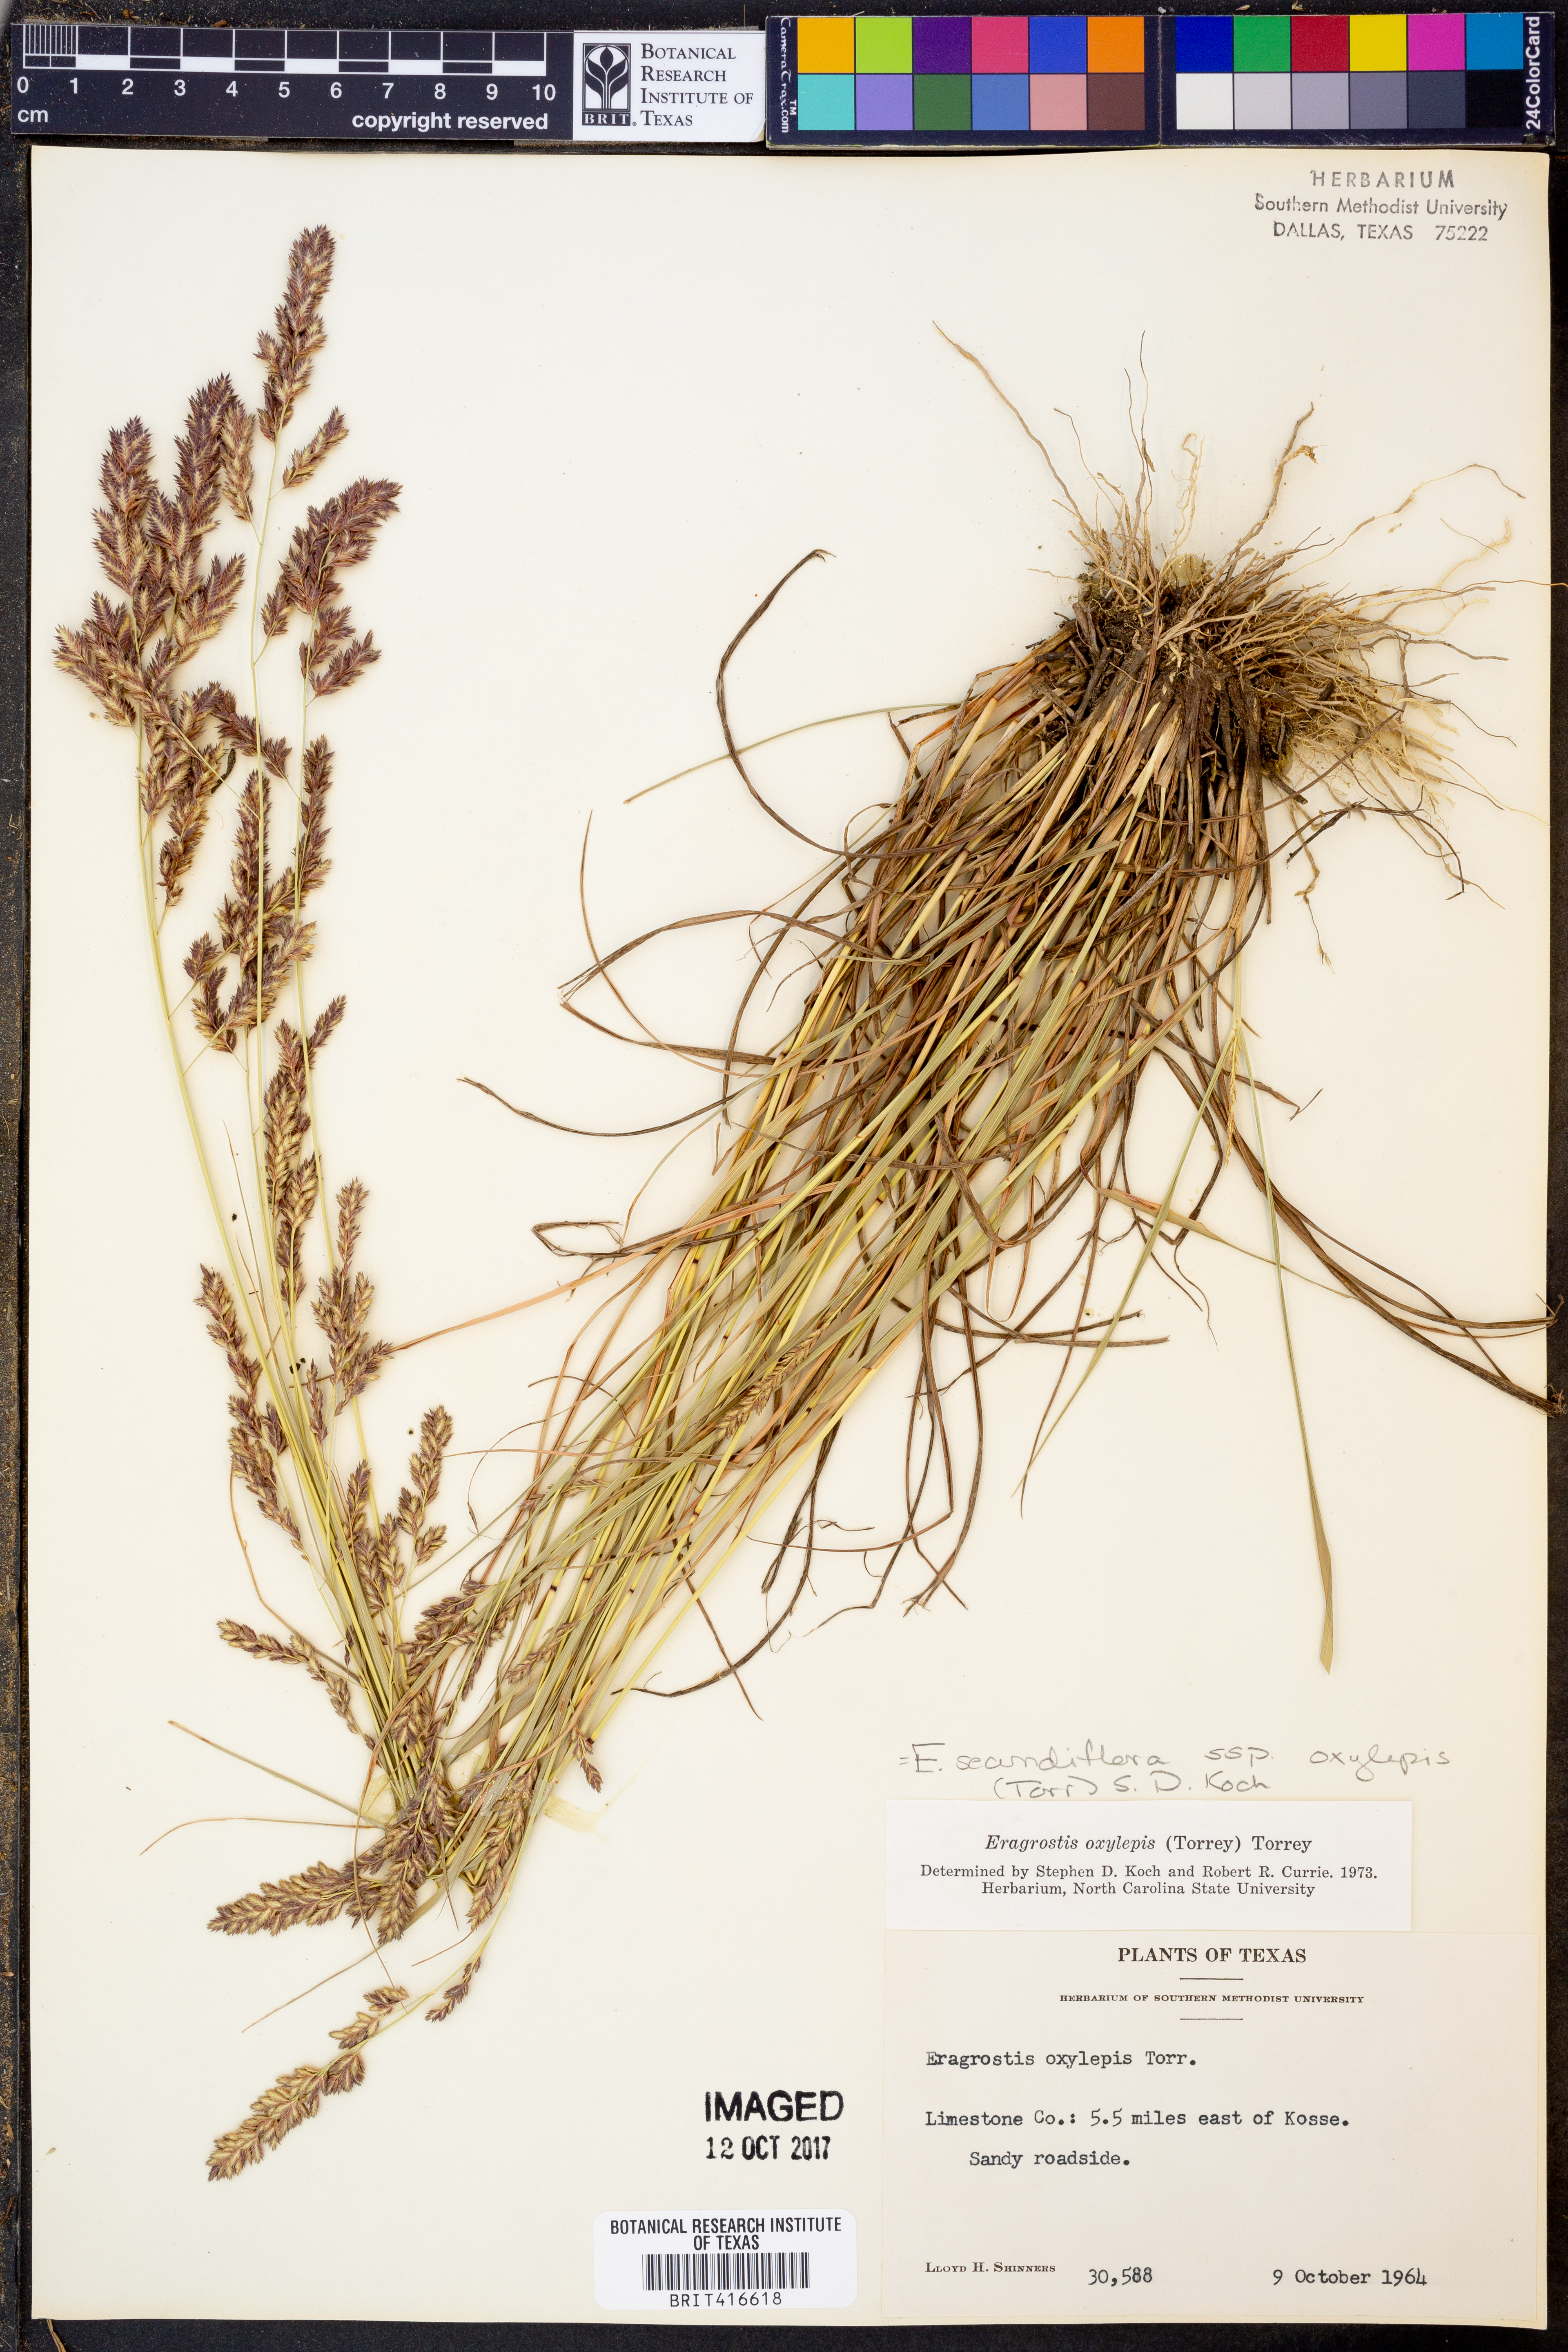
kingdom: Plantae
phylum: Tracheophyta
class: Liliopsida
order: Poales
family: Poaceae
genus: Eragrostis
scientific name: Eragrostis secundiflora
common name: Red love grass
